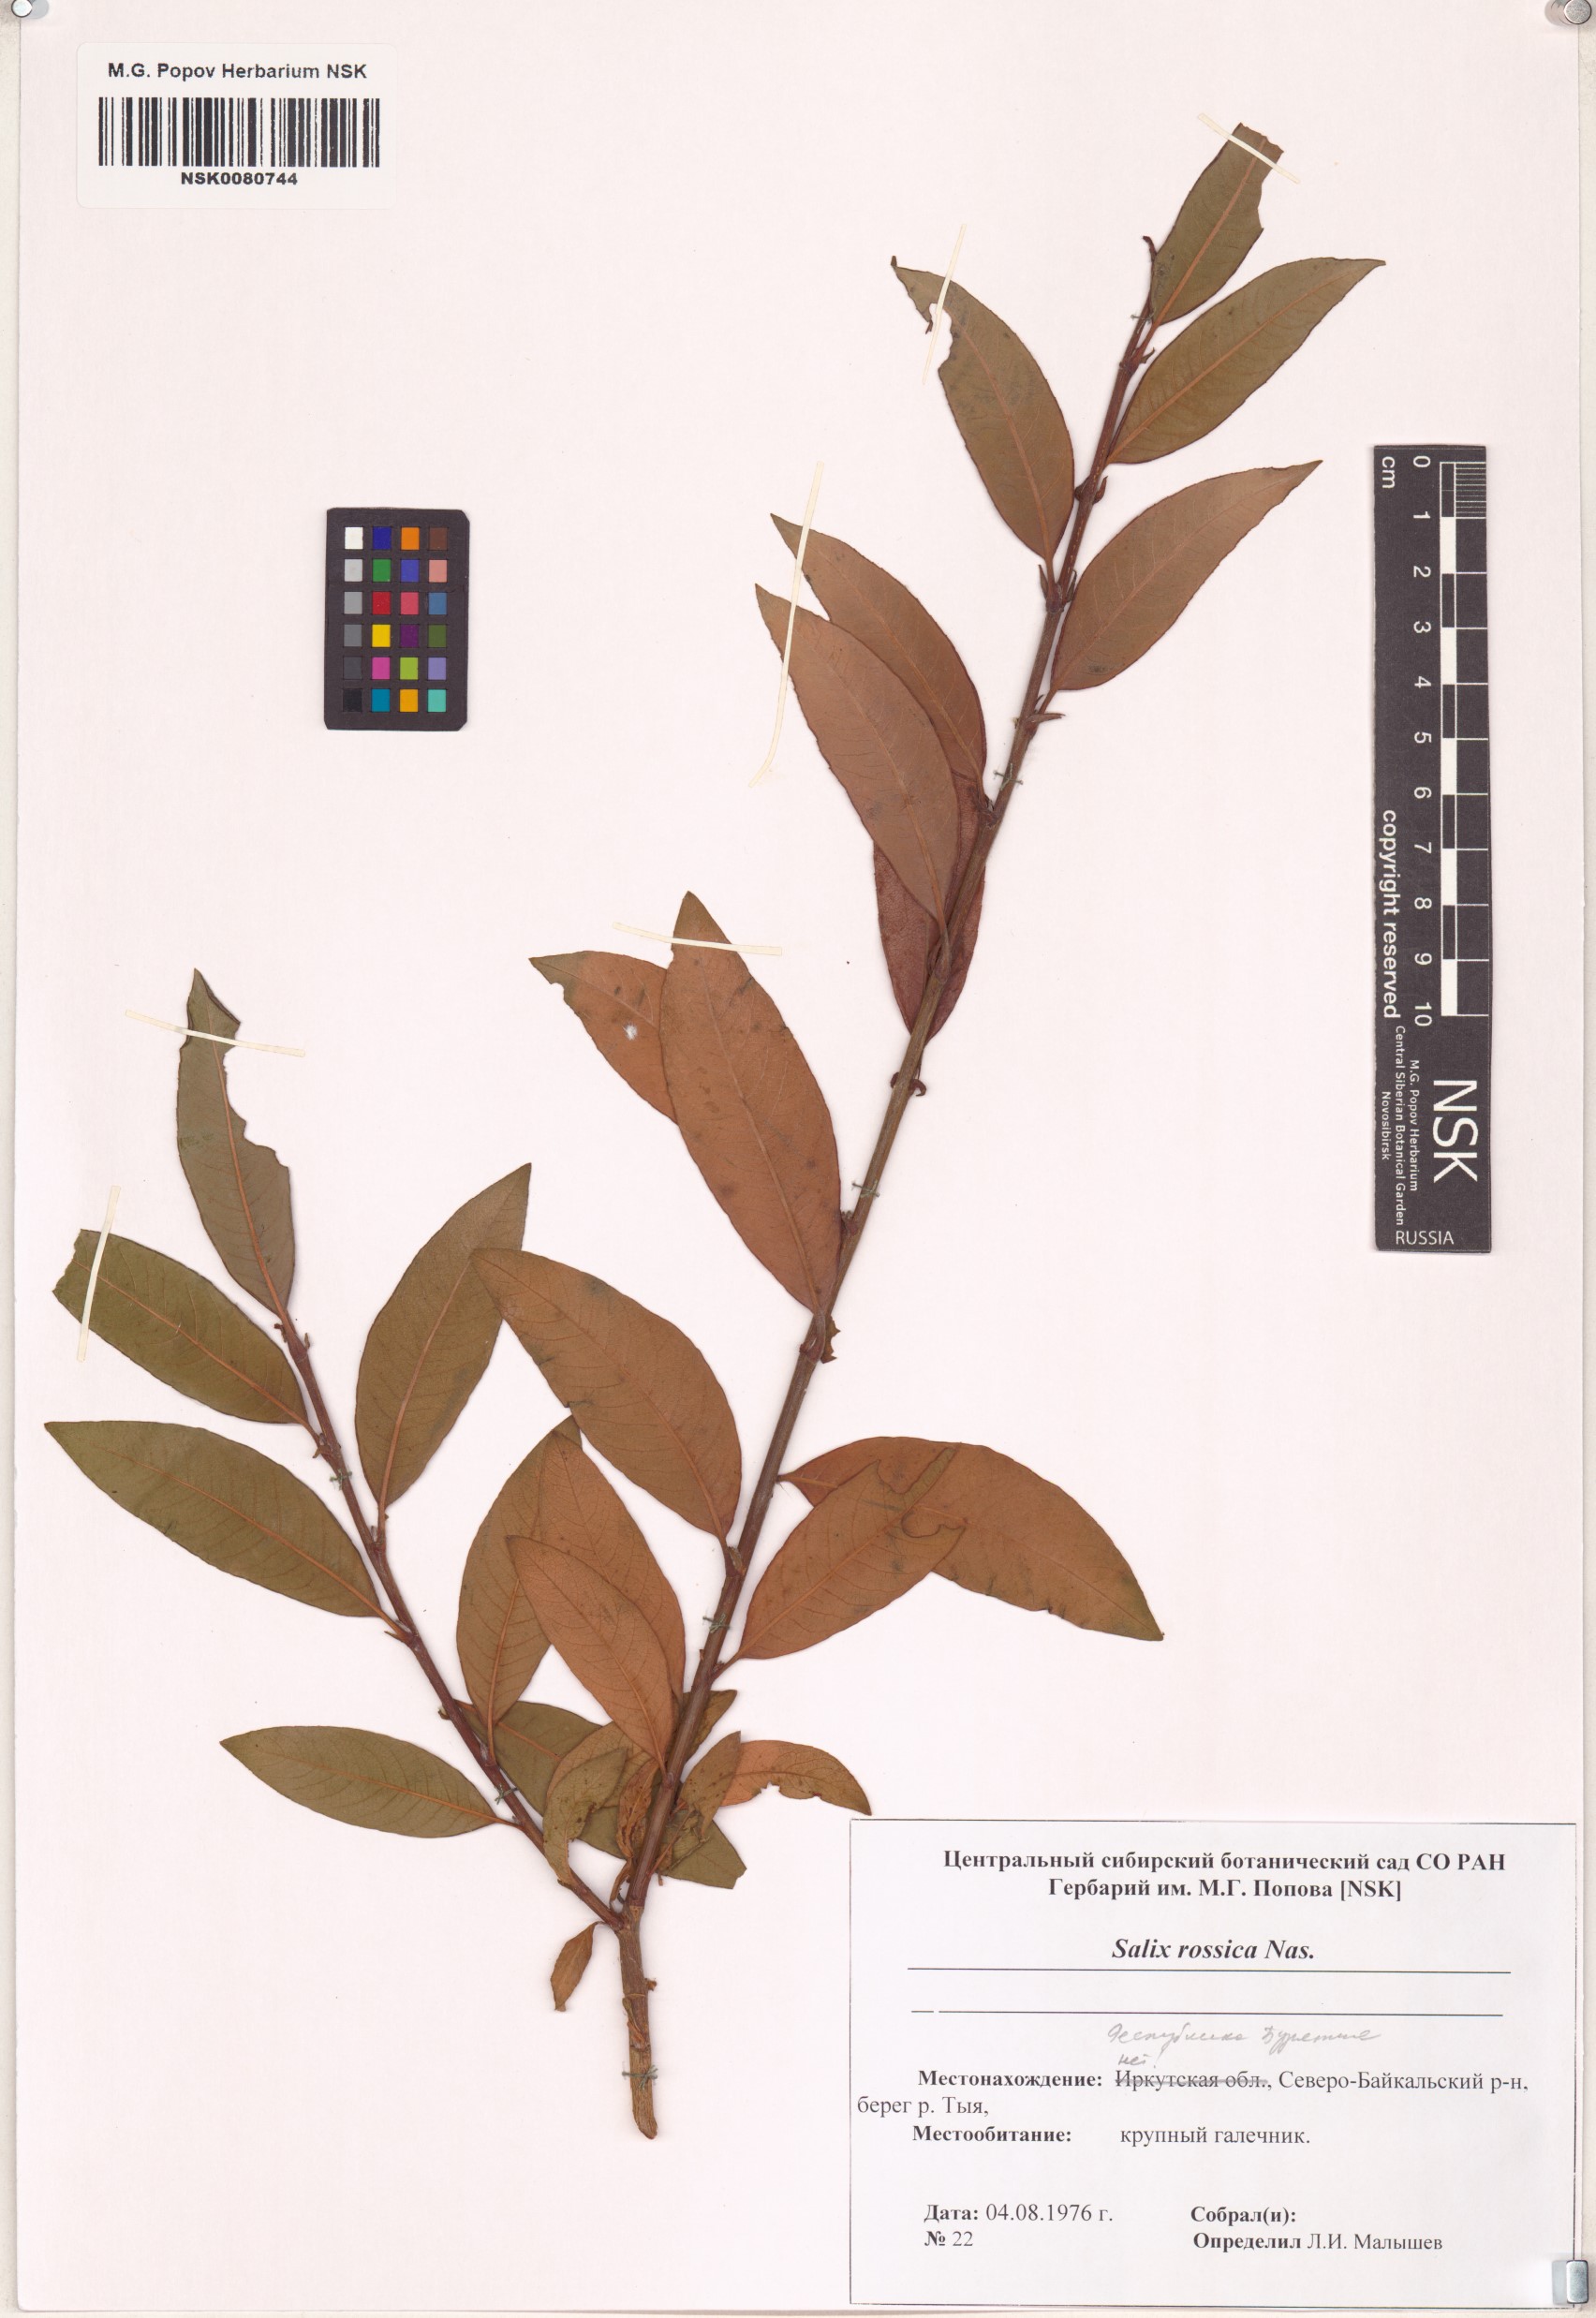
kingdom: Plantae
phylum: Tracheophyta
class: Magnoliopsida
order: Malpighiales
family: Salicaceae
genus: Salix
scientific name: Salix viminalis
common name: Osier
